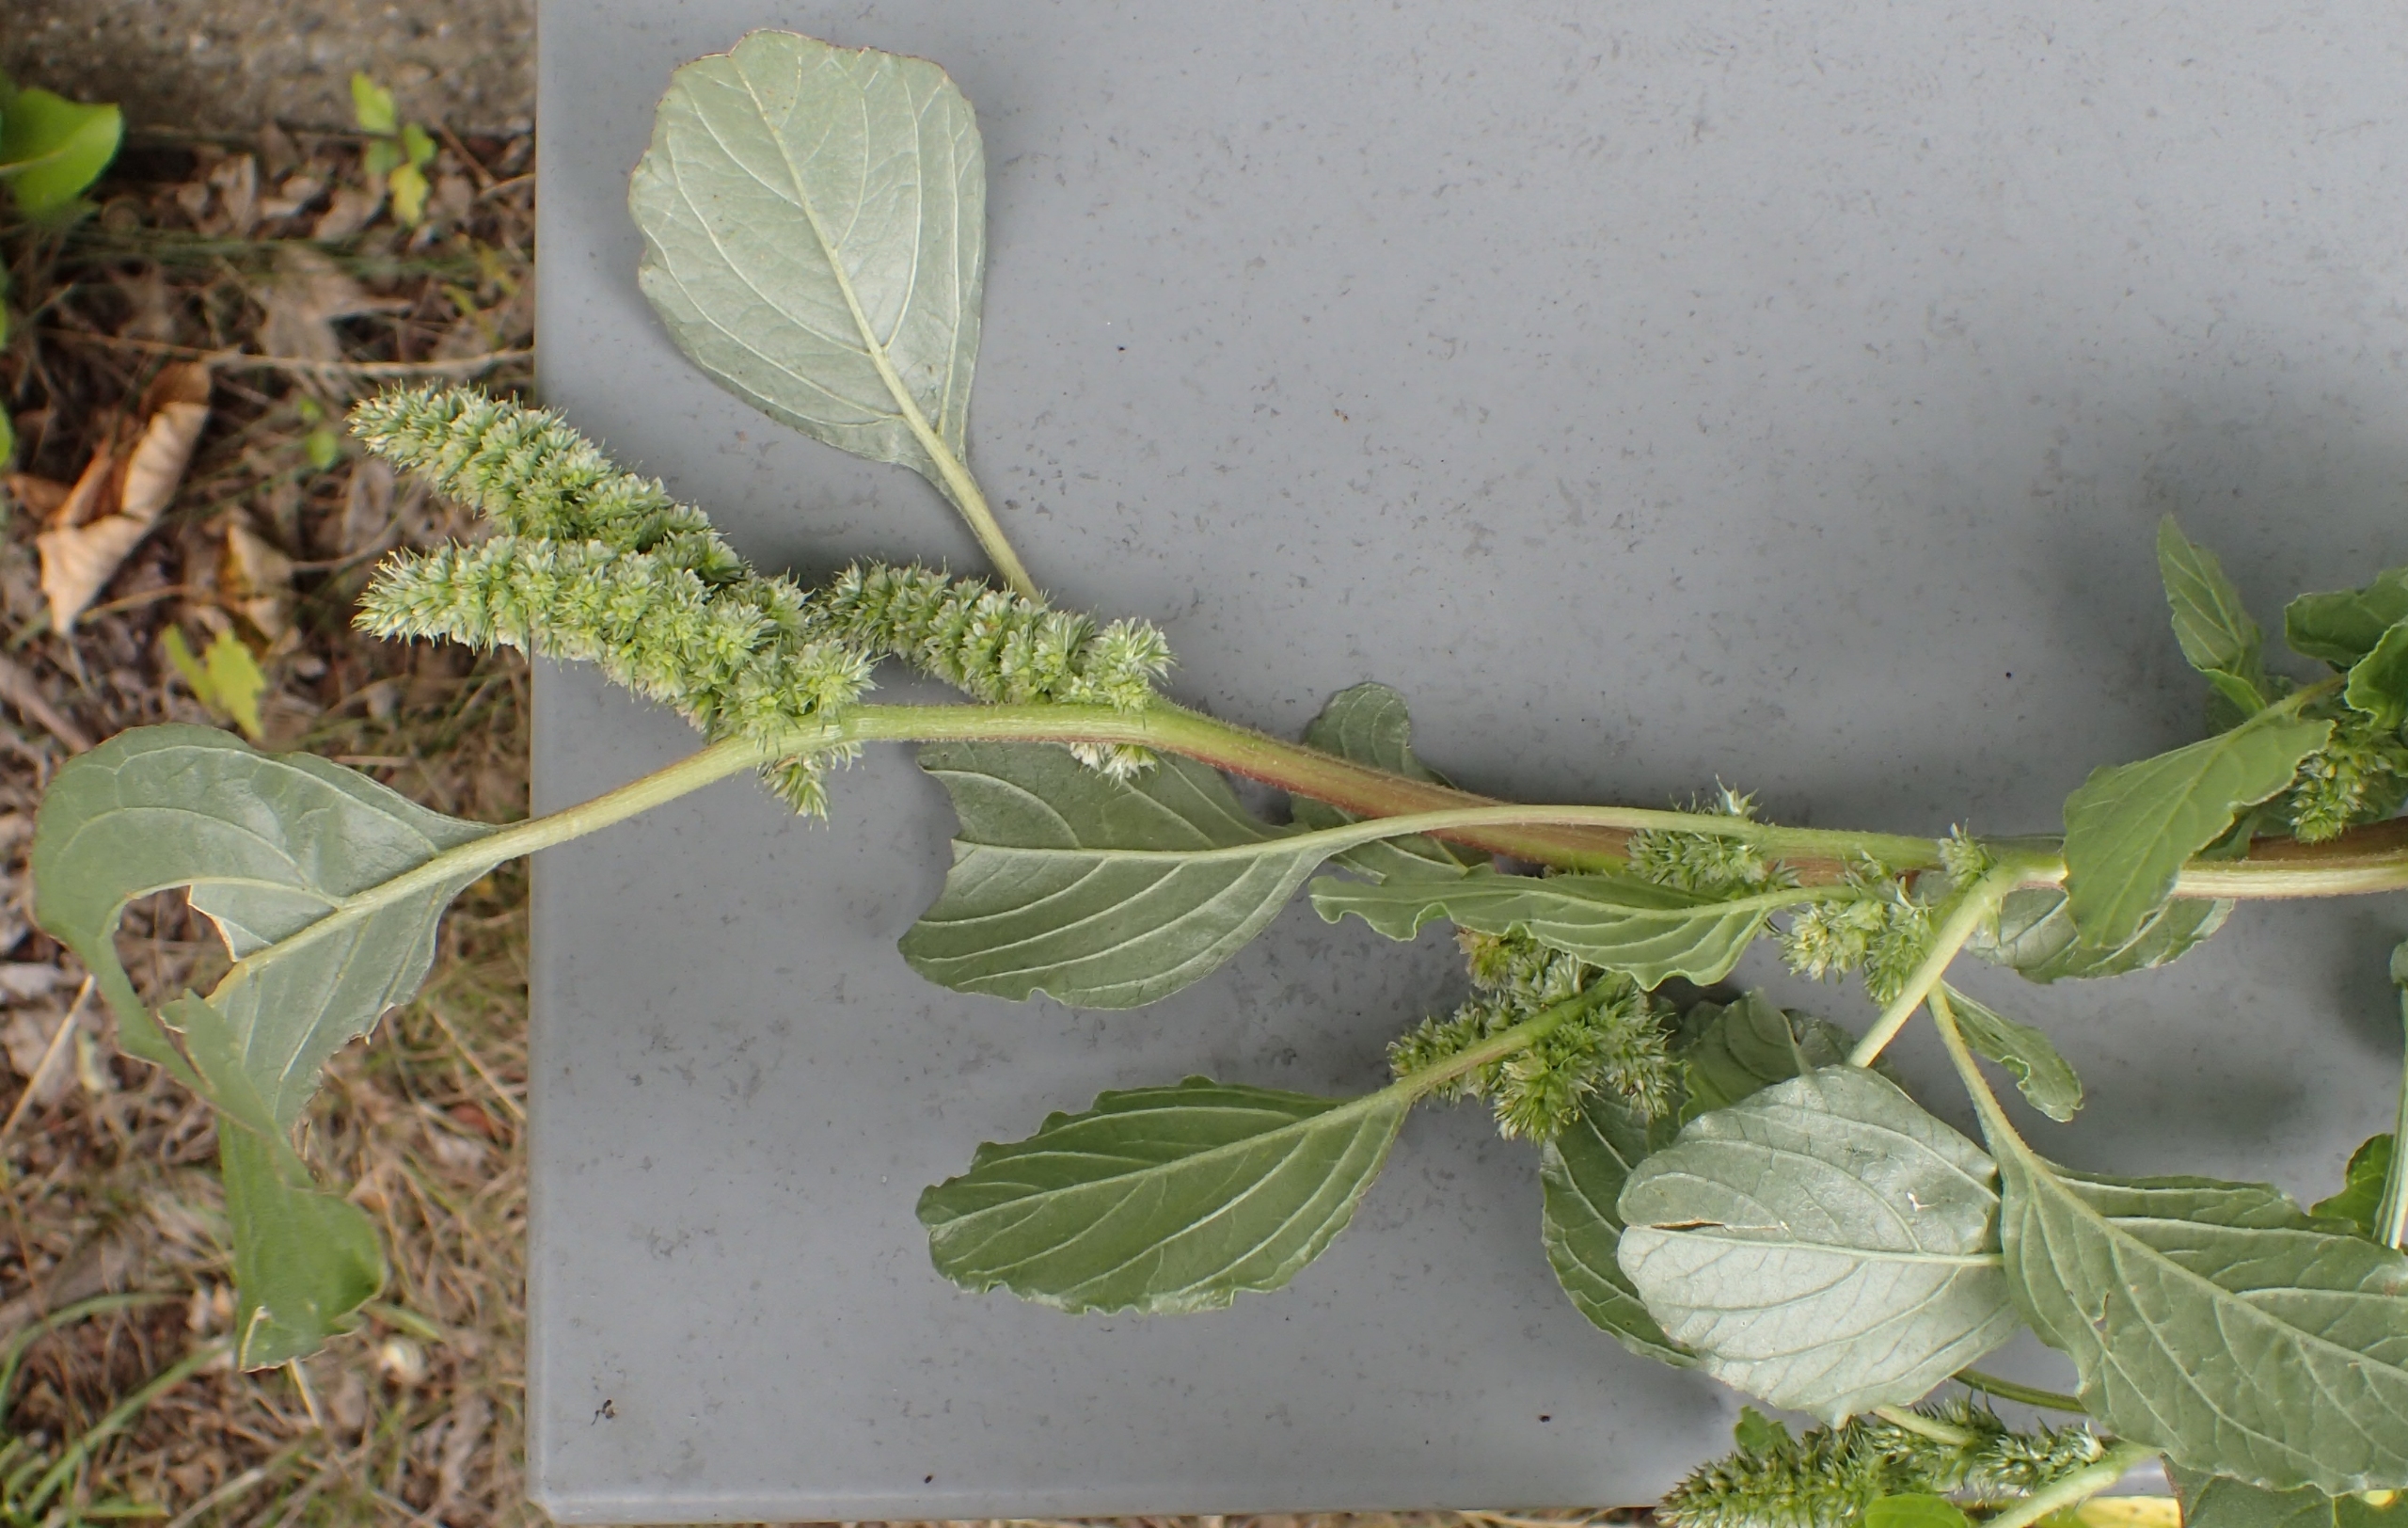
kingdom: Plantae
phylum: Tracheophyta
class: Magnoliopsida
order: Caryophyllales
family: Amaranthaceae
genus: Amaranthus
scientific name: Amaranthus retroflexus
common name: Opret amarant
